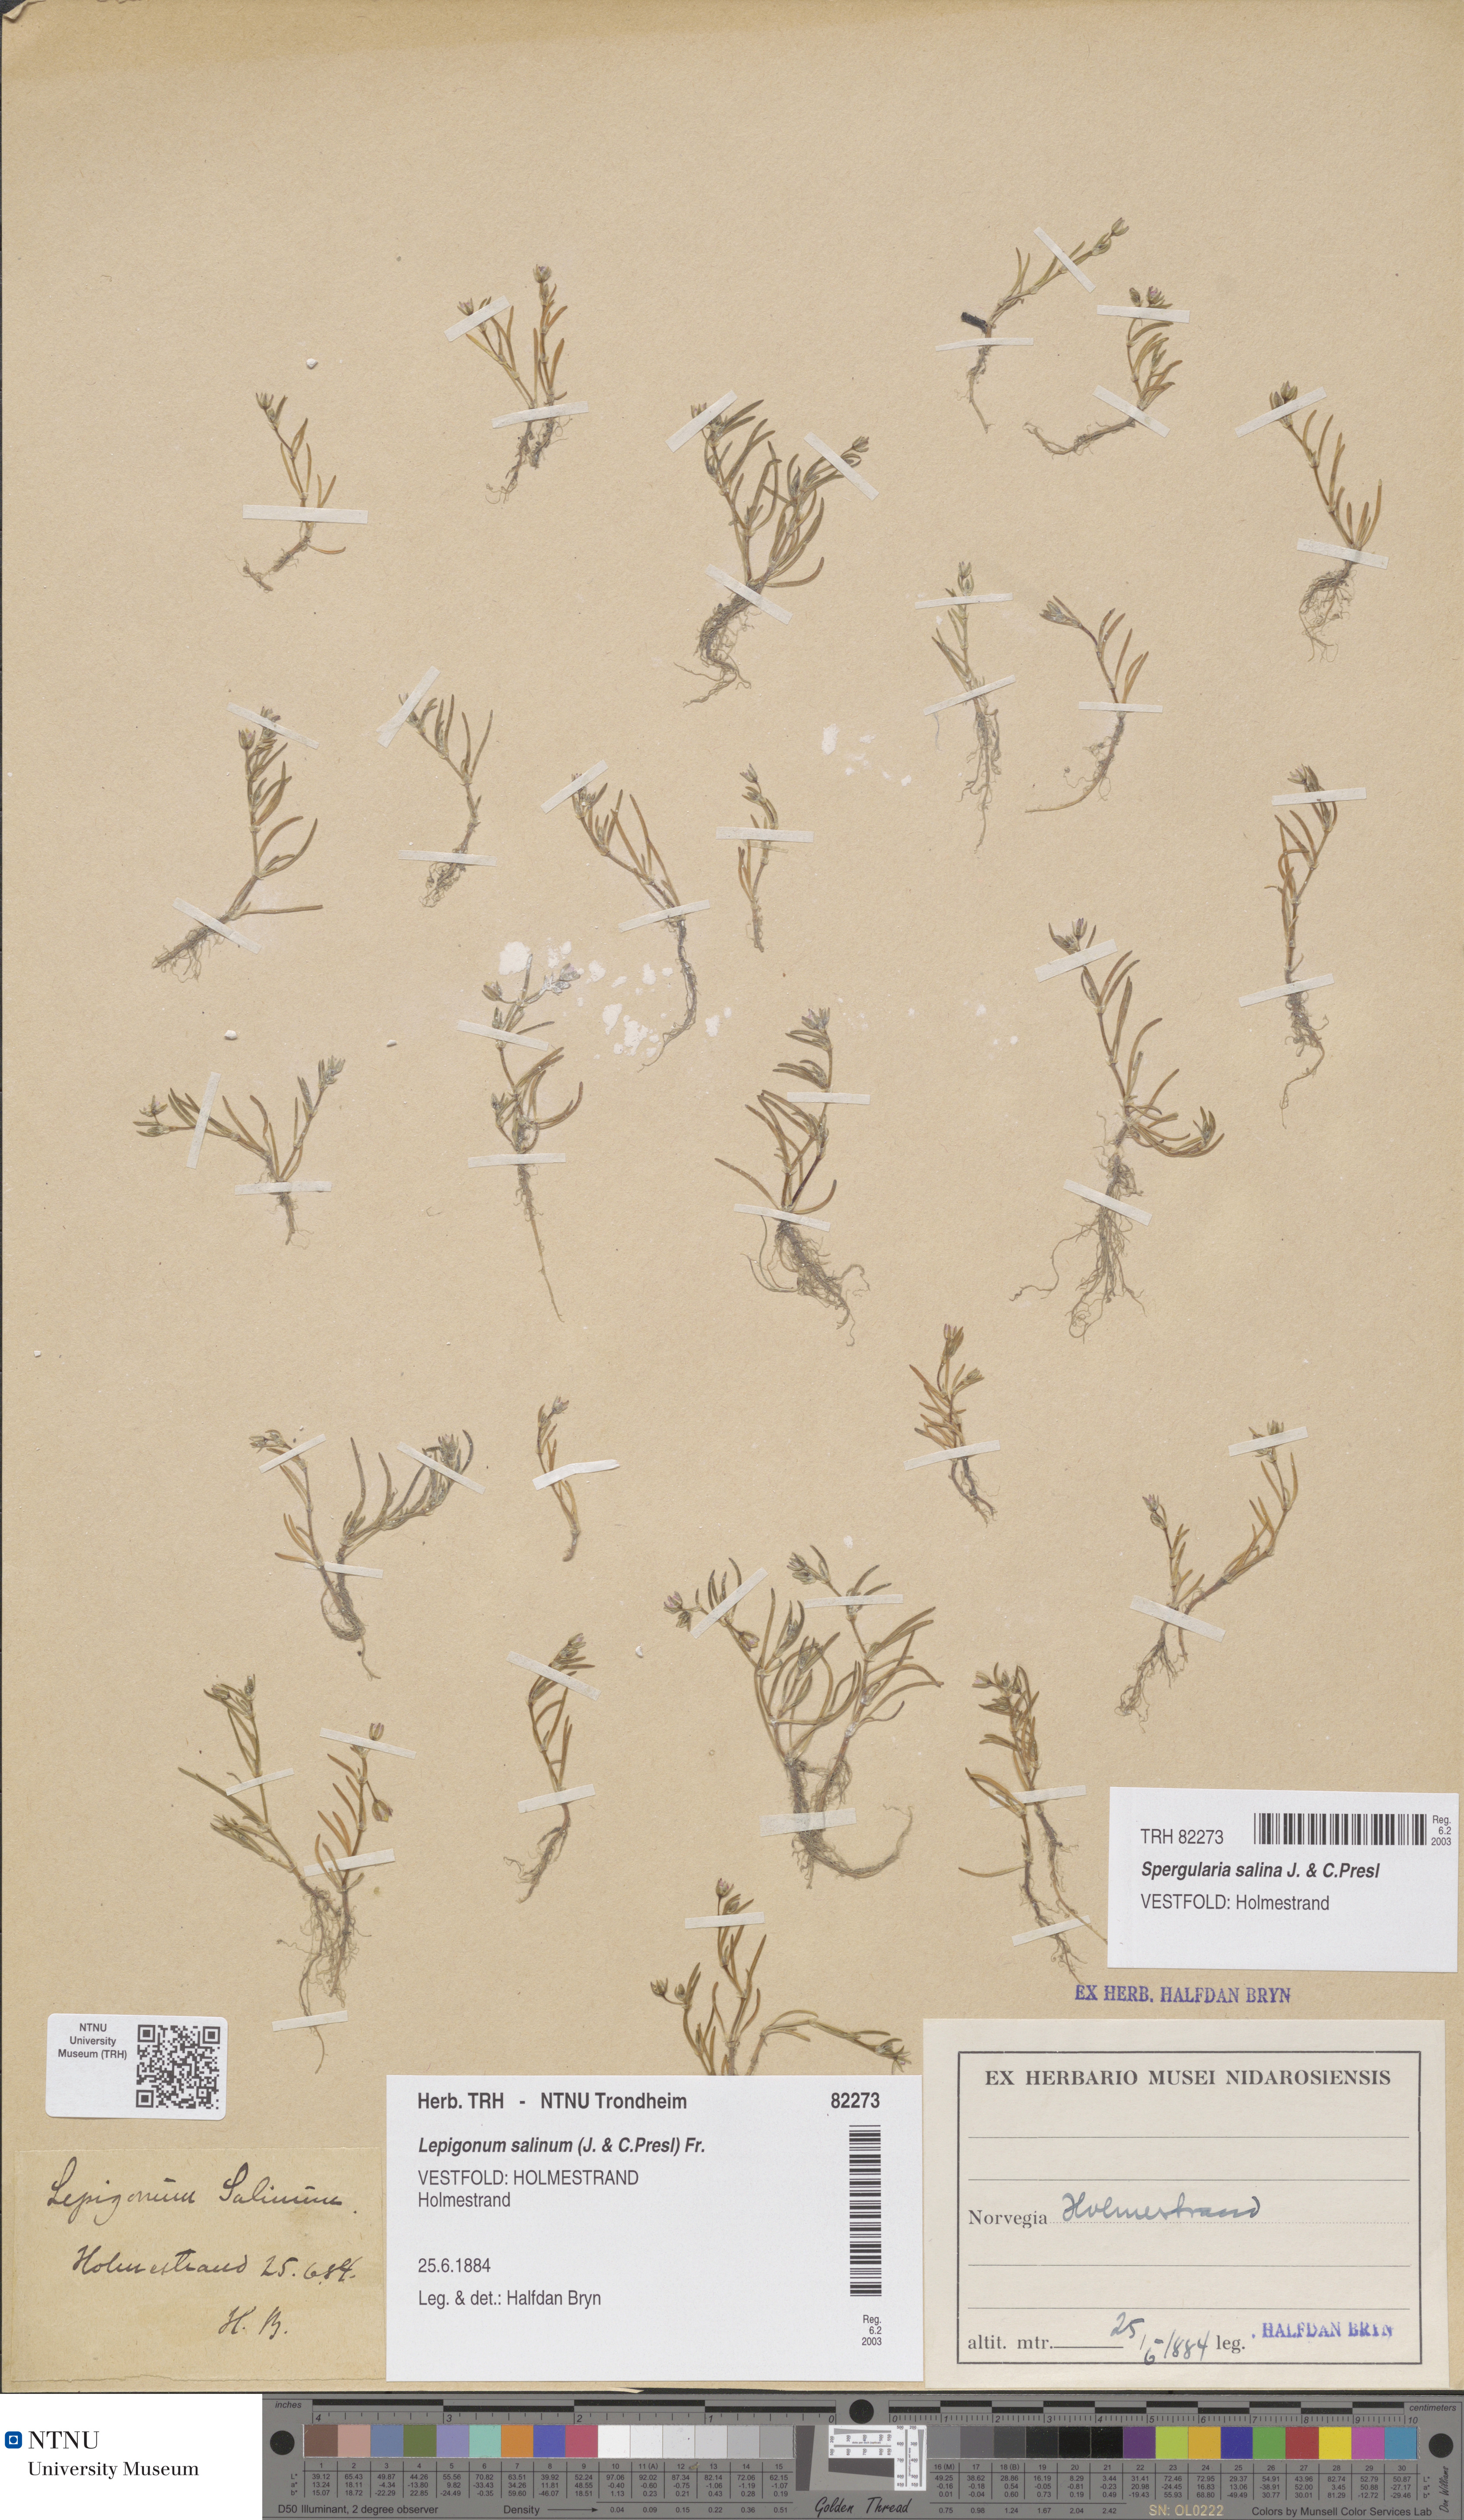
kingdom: Plantae
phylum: Tracheophyta
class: Magnoliopsida
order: Caryophyllales
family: Caryophyllaceae
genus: Spergularia
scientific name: Spergularia marina
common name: Lesser sea-spurrey
